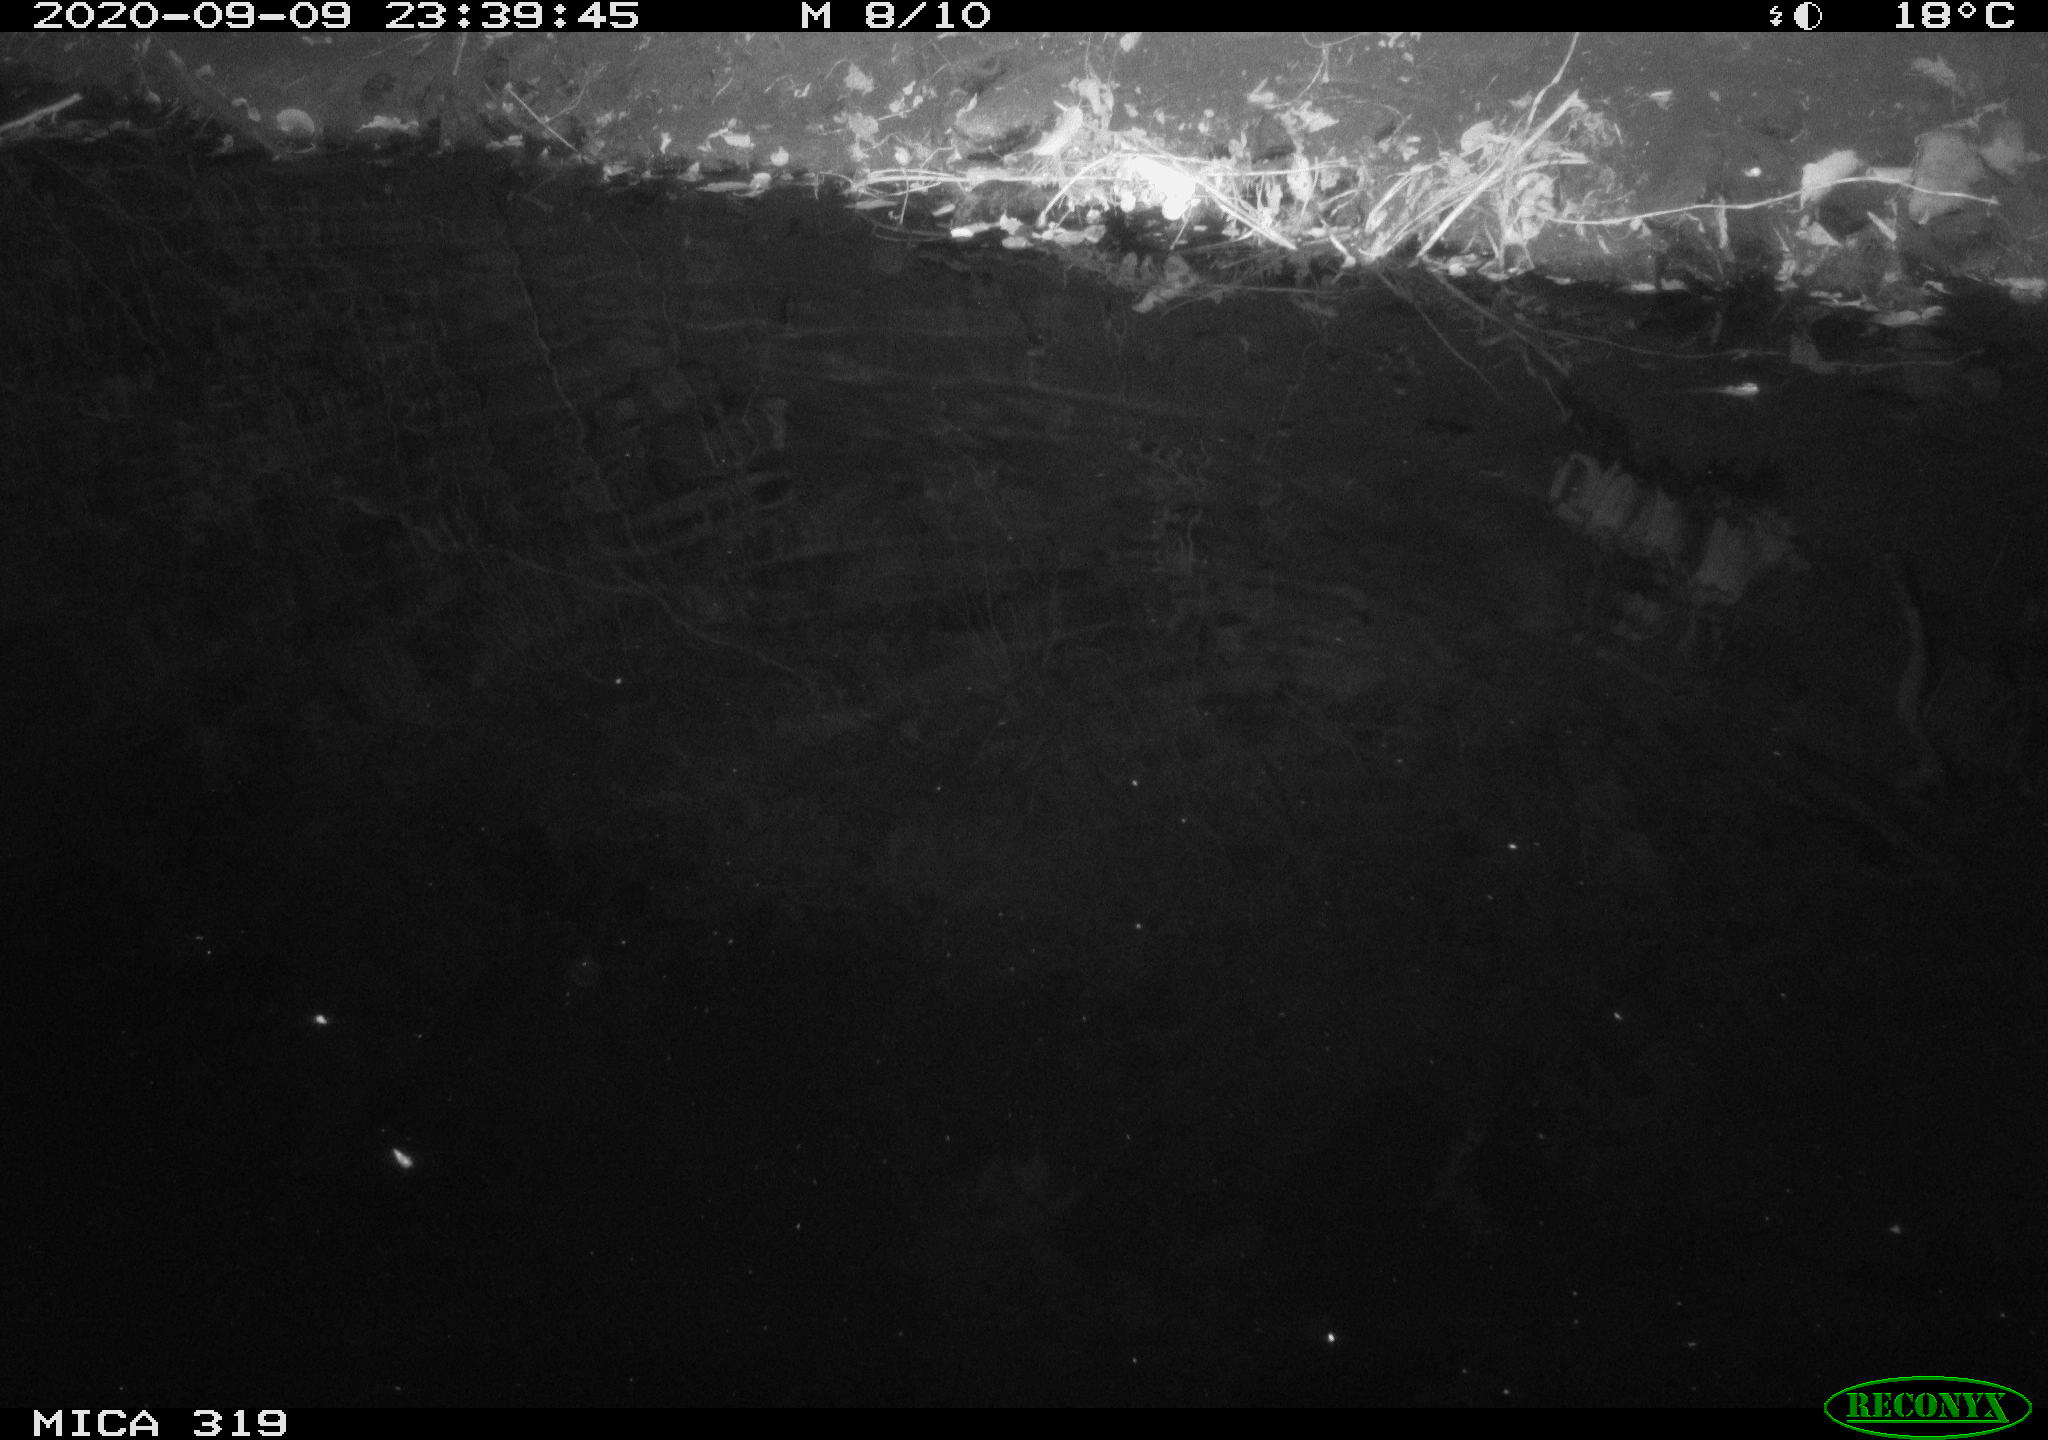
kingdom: Animalia
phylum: Chordata
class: Aves
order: Anseriformes
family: Anatidae
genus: Anas
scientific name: Anas platyrhynchos
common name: Mallard
